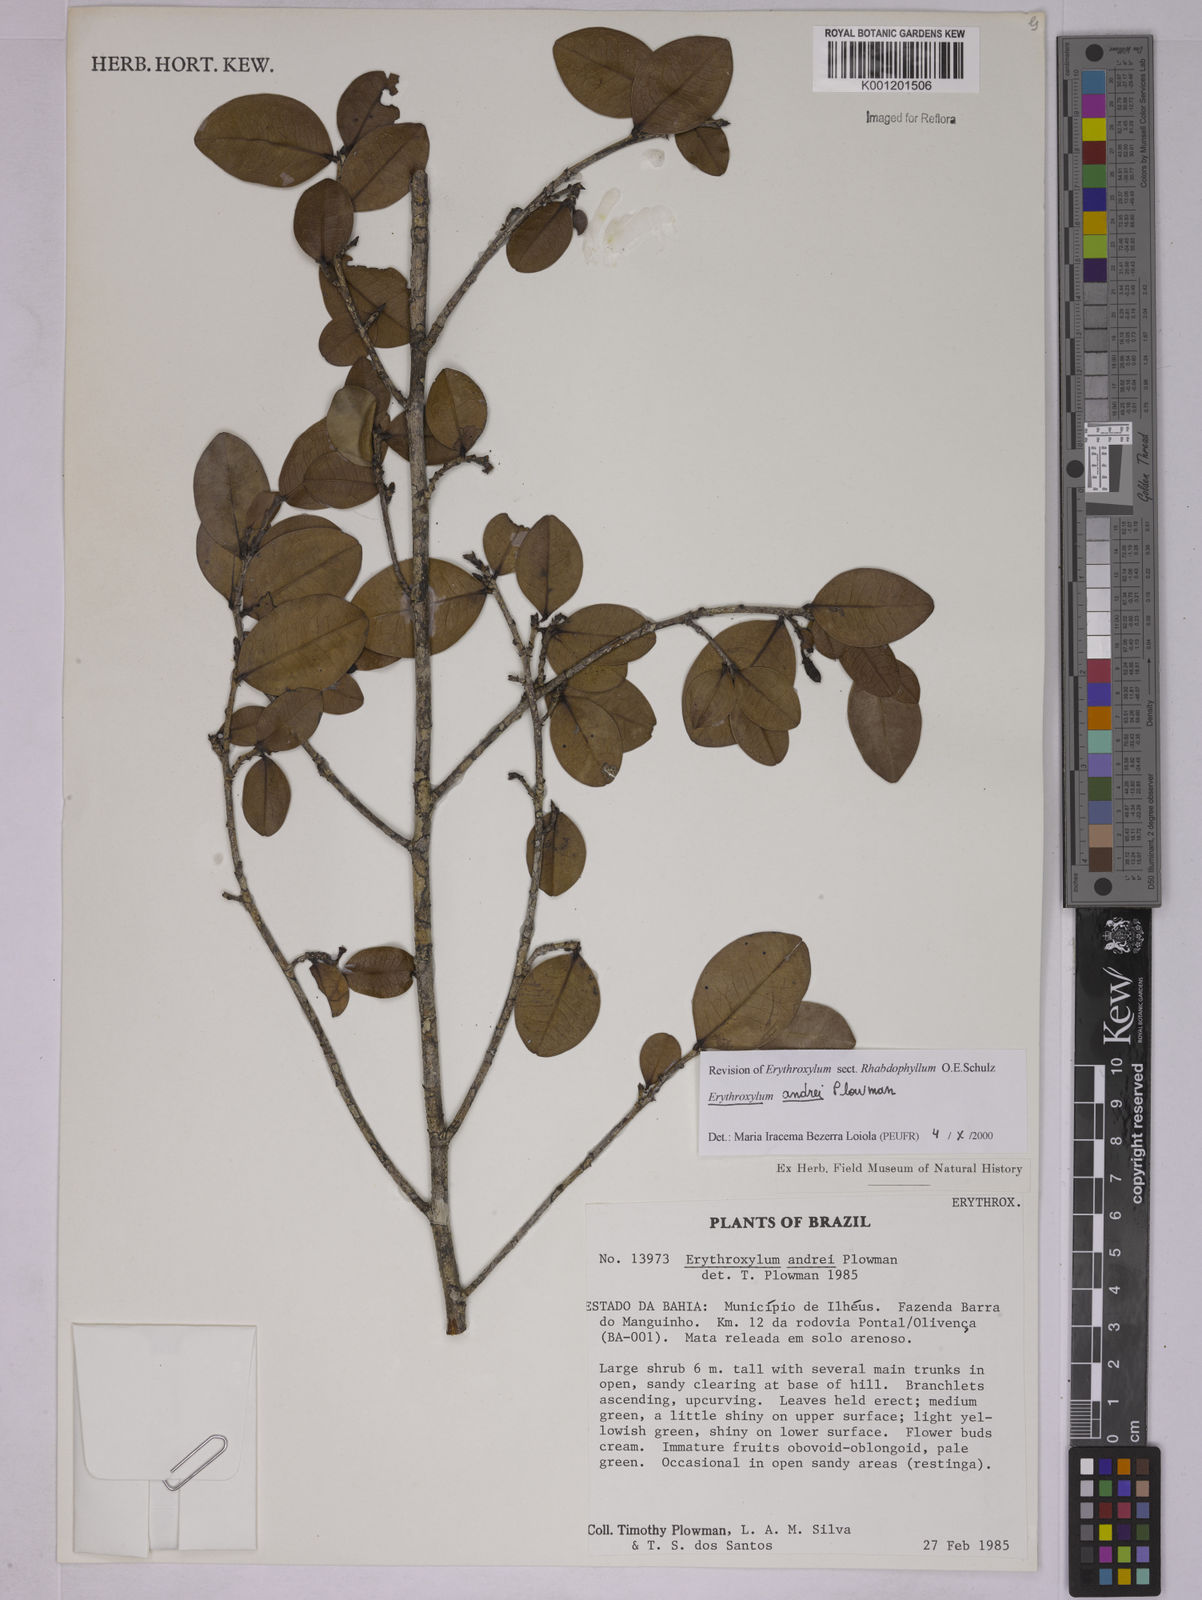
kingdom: Plantae
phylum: Tracheophyta
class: Magnoliopsida
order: Malpighiales
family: Erythroxylaceae
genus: Erythroxylum
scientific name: Erythroxylum andrei
